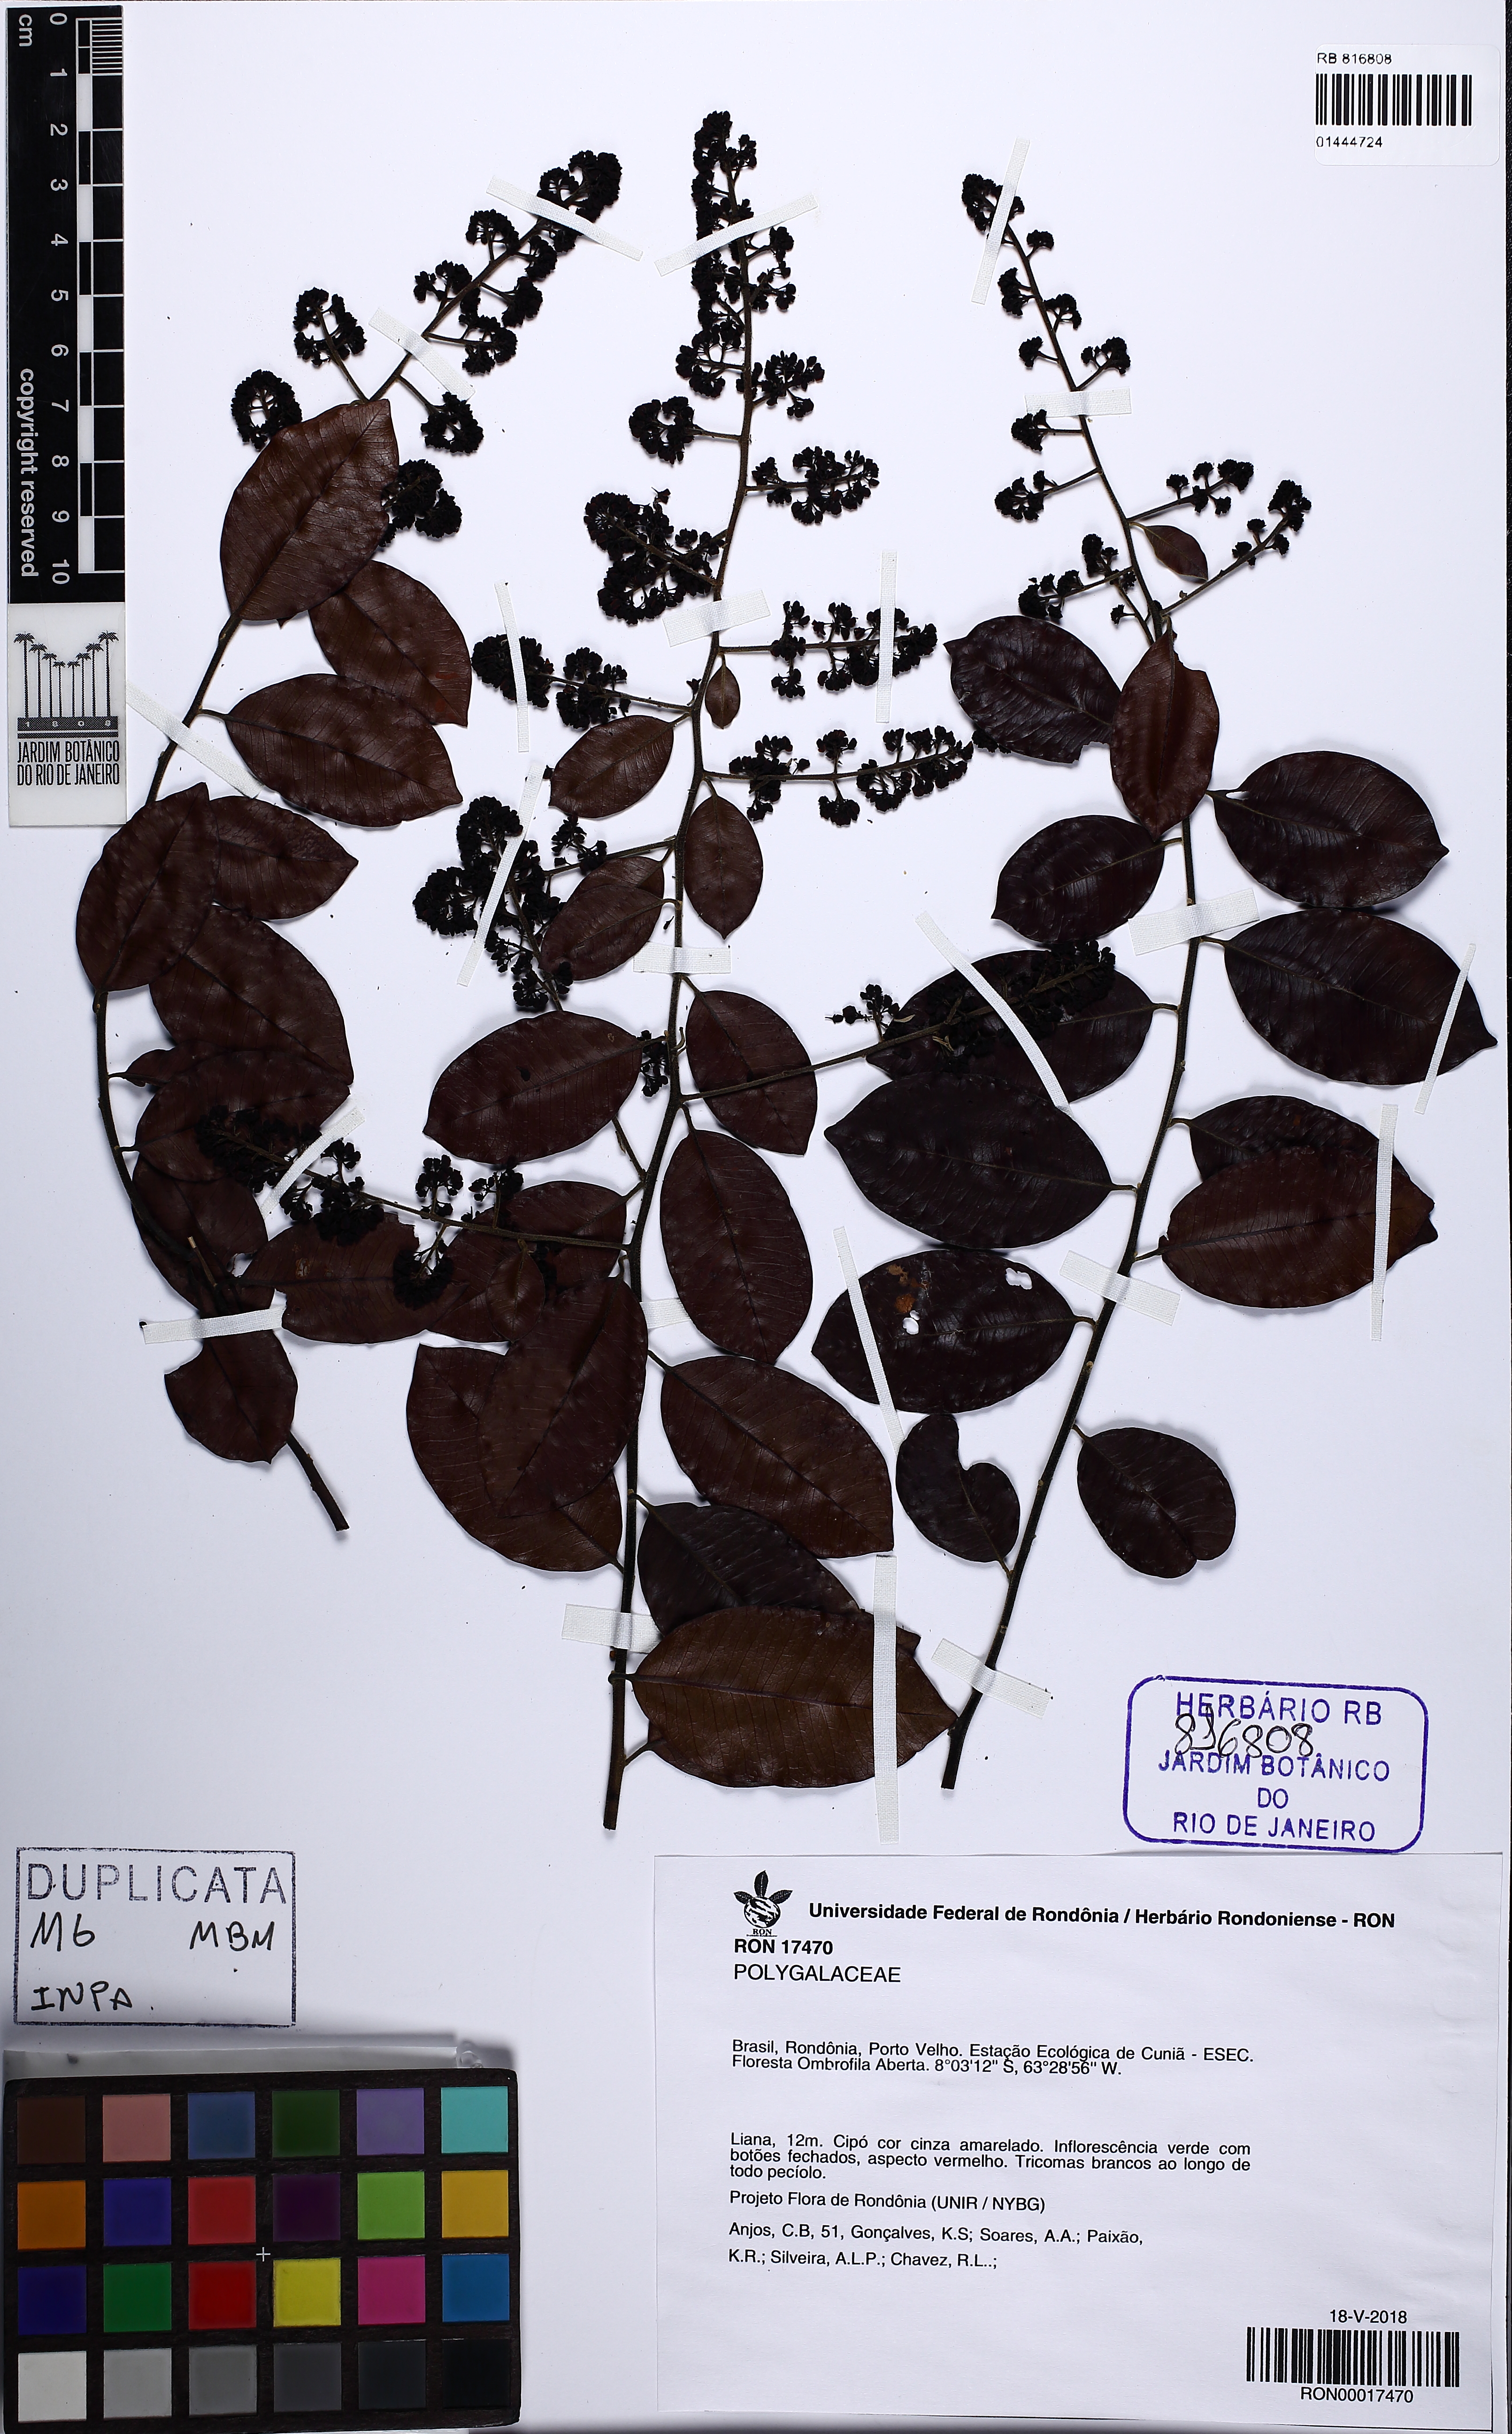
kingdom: Plantae
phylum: Tracheophyta
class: Magnoliopsida
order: Fabales
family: Polygalaceae
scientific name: Polygalaceae
